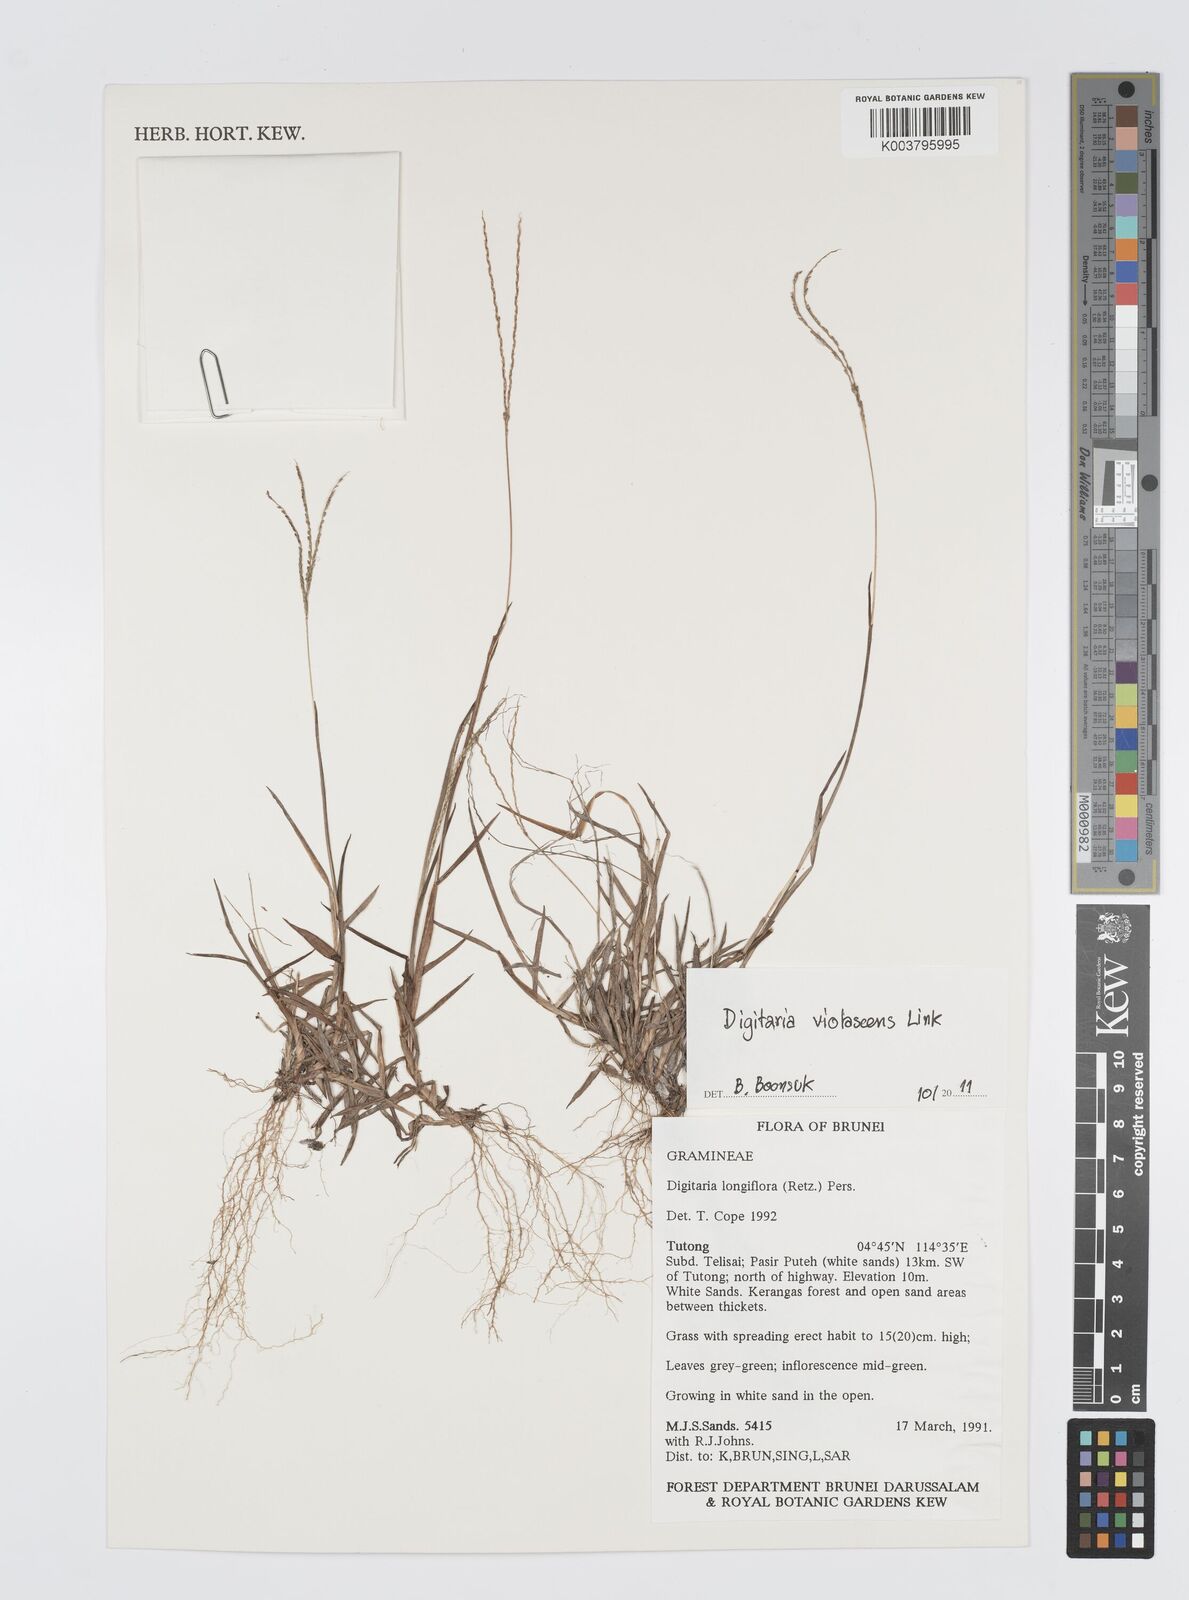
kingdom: Plantae
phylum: Tracheophyta
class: Liliopsida
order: Poales
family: Poaceae
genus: Digitaria
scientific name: Digitaria violascens
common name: Violet crabgrass
